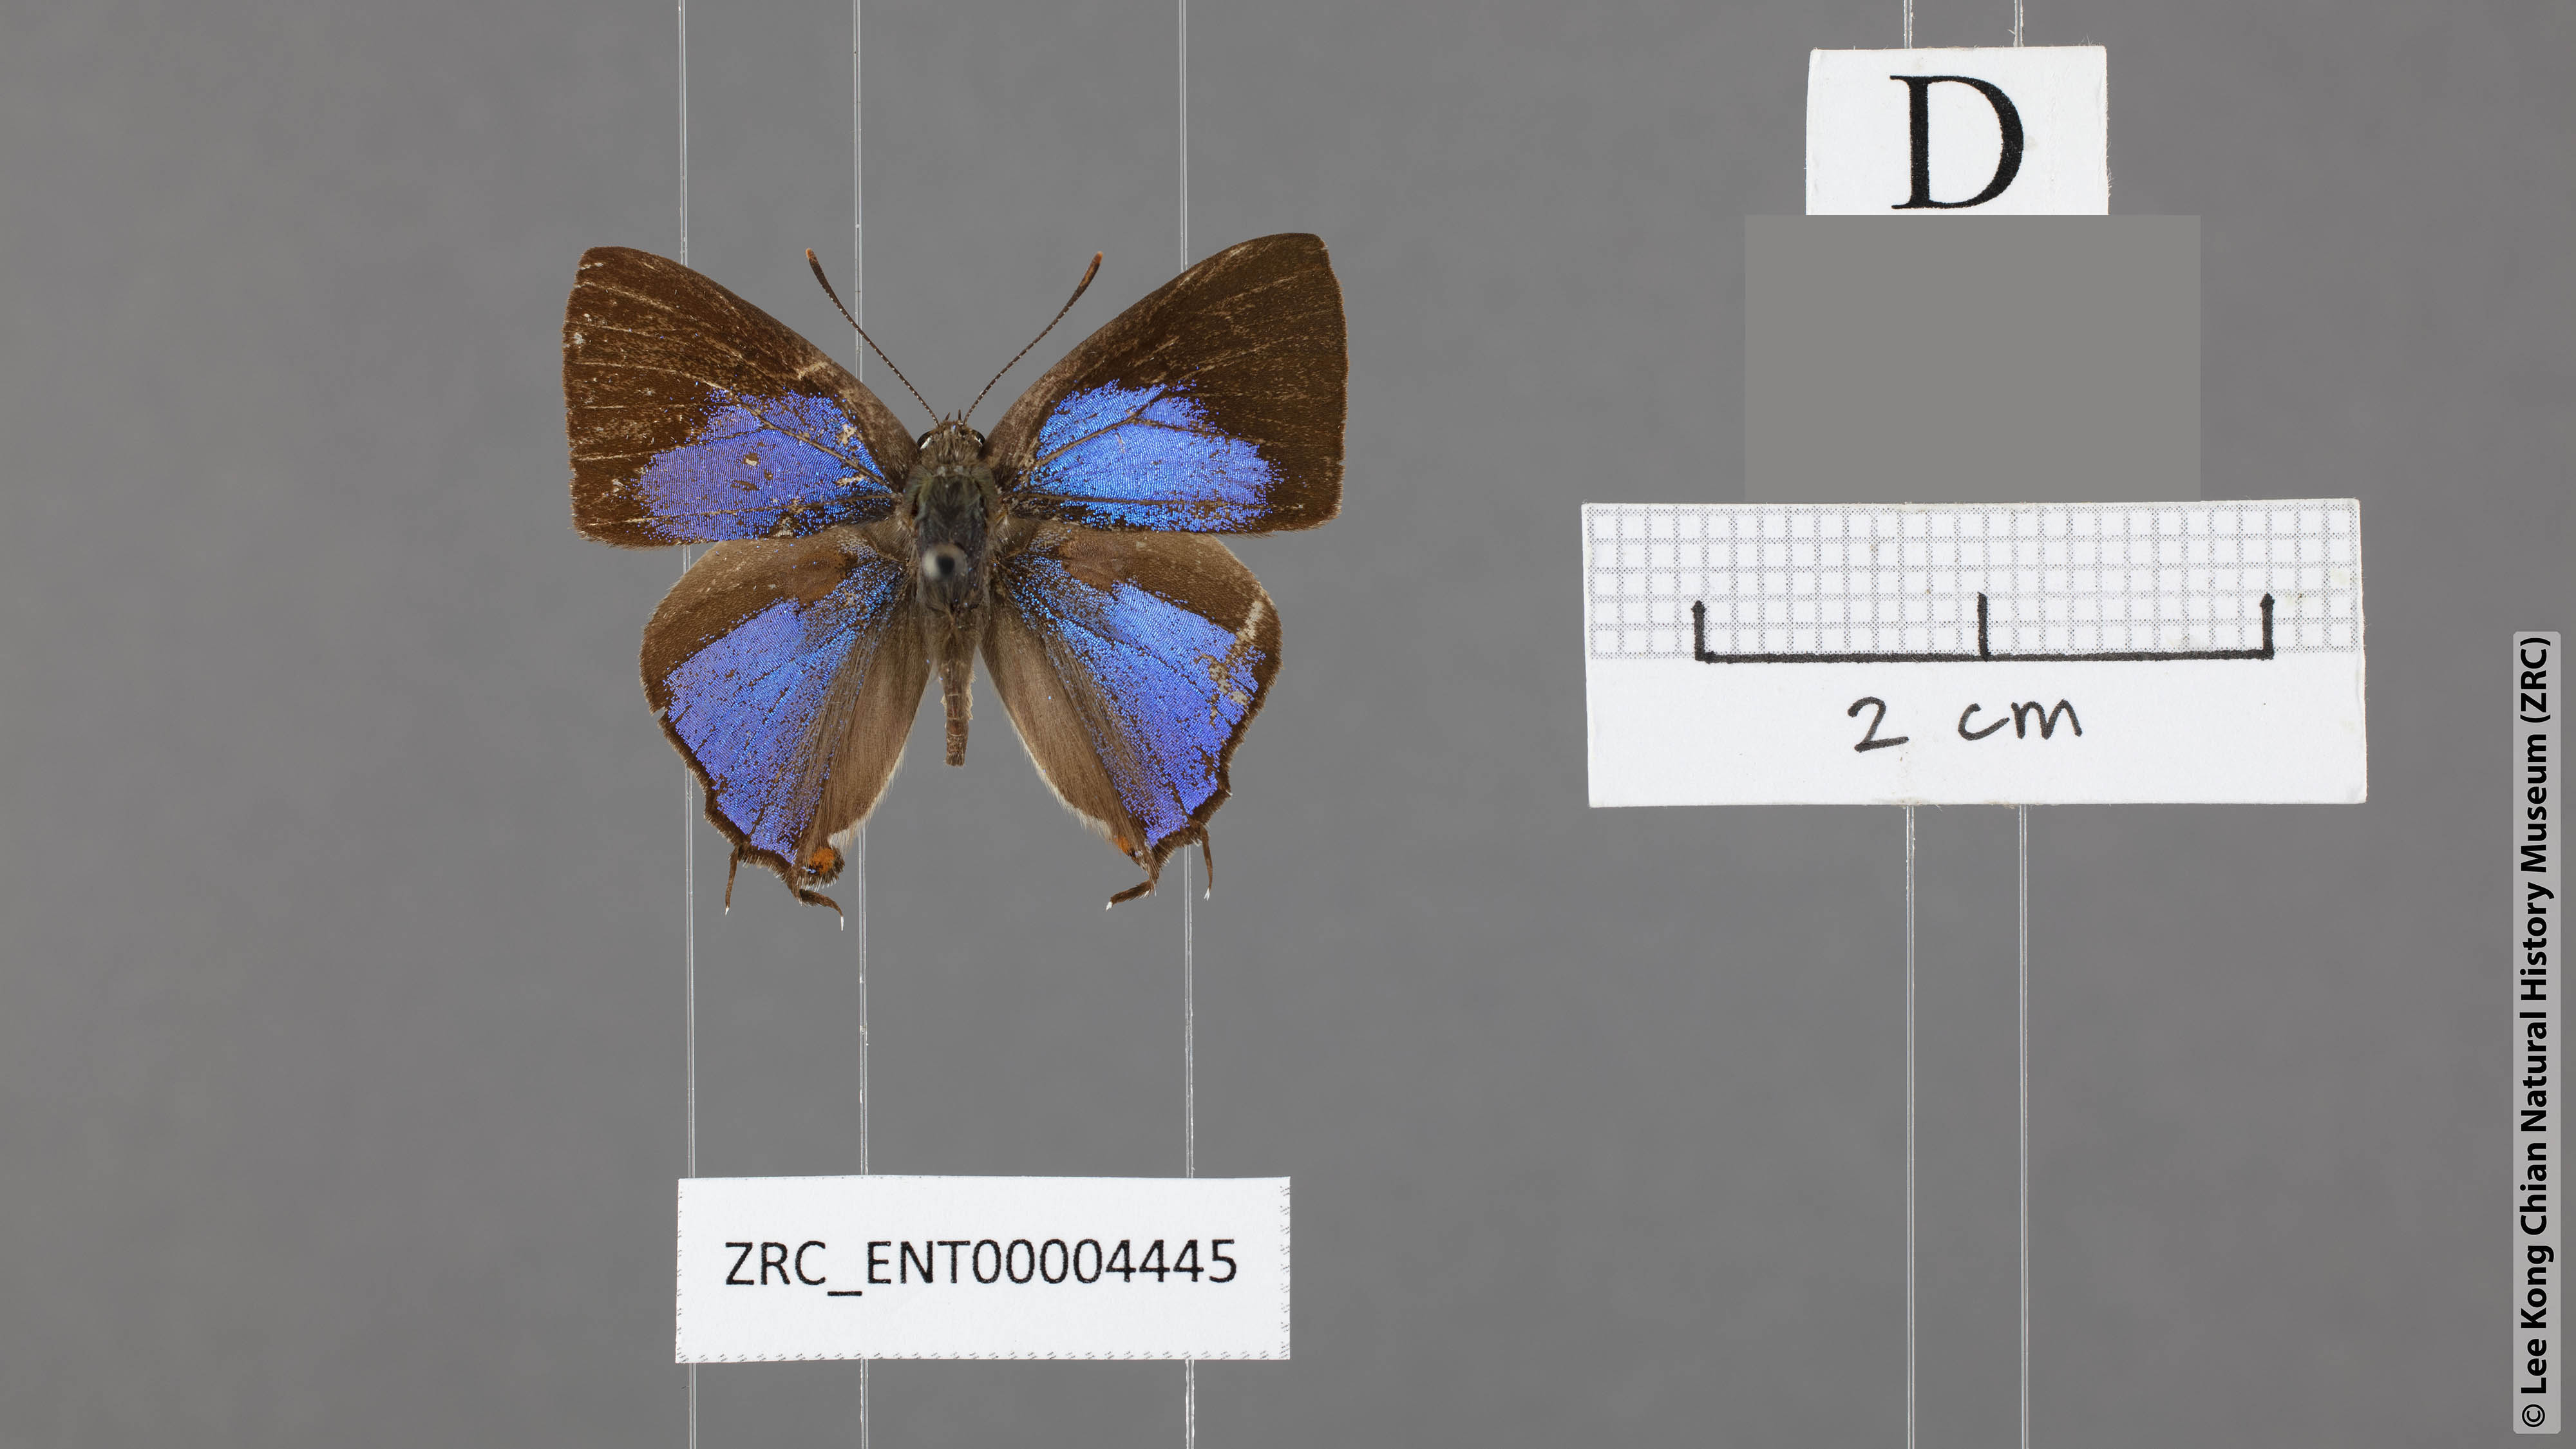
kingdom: Animalia
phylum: Arthropoda
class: Insecta
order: Lepidoptera
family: Lycaenidae
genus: Pratapa
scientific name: Pratapa icetas
